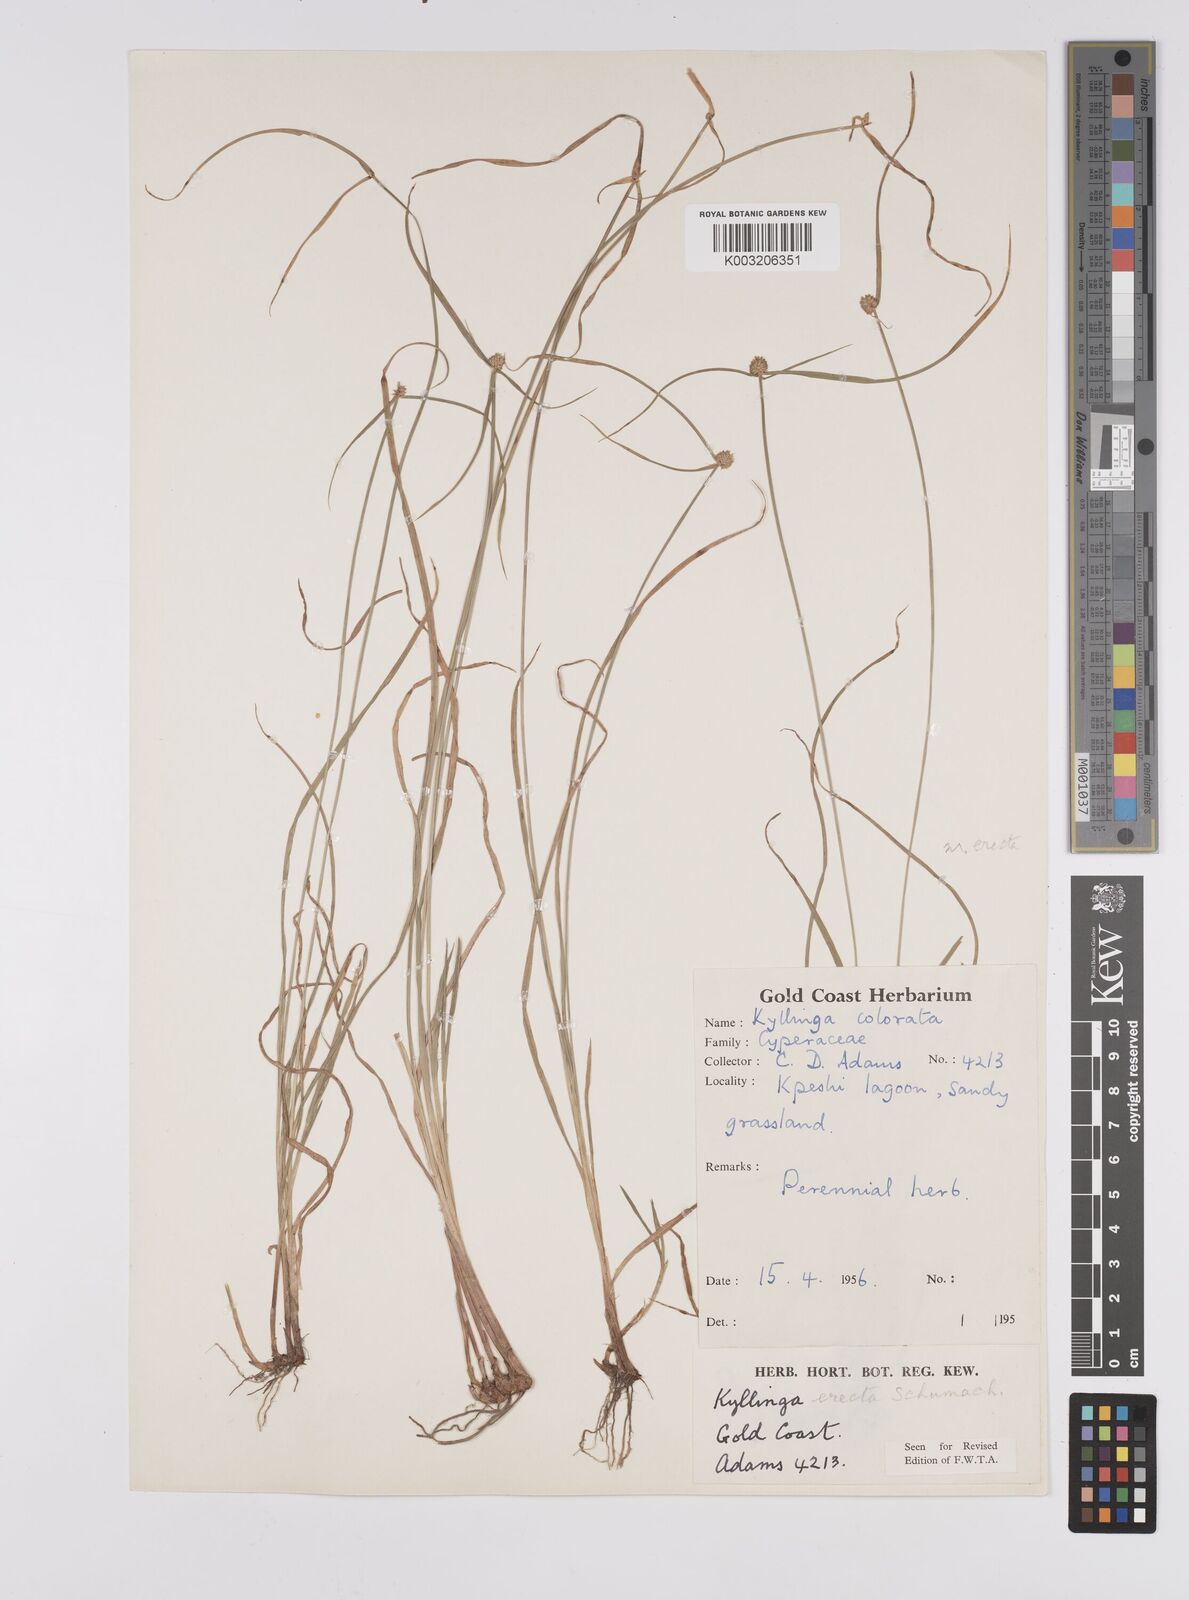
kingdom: Plantae
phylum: Tracheophyta
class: Liliopsida
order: Poales
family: Cyperaceae
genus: Cyperus
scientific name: Cyperus erectus
